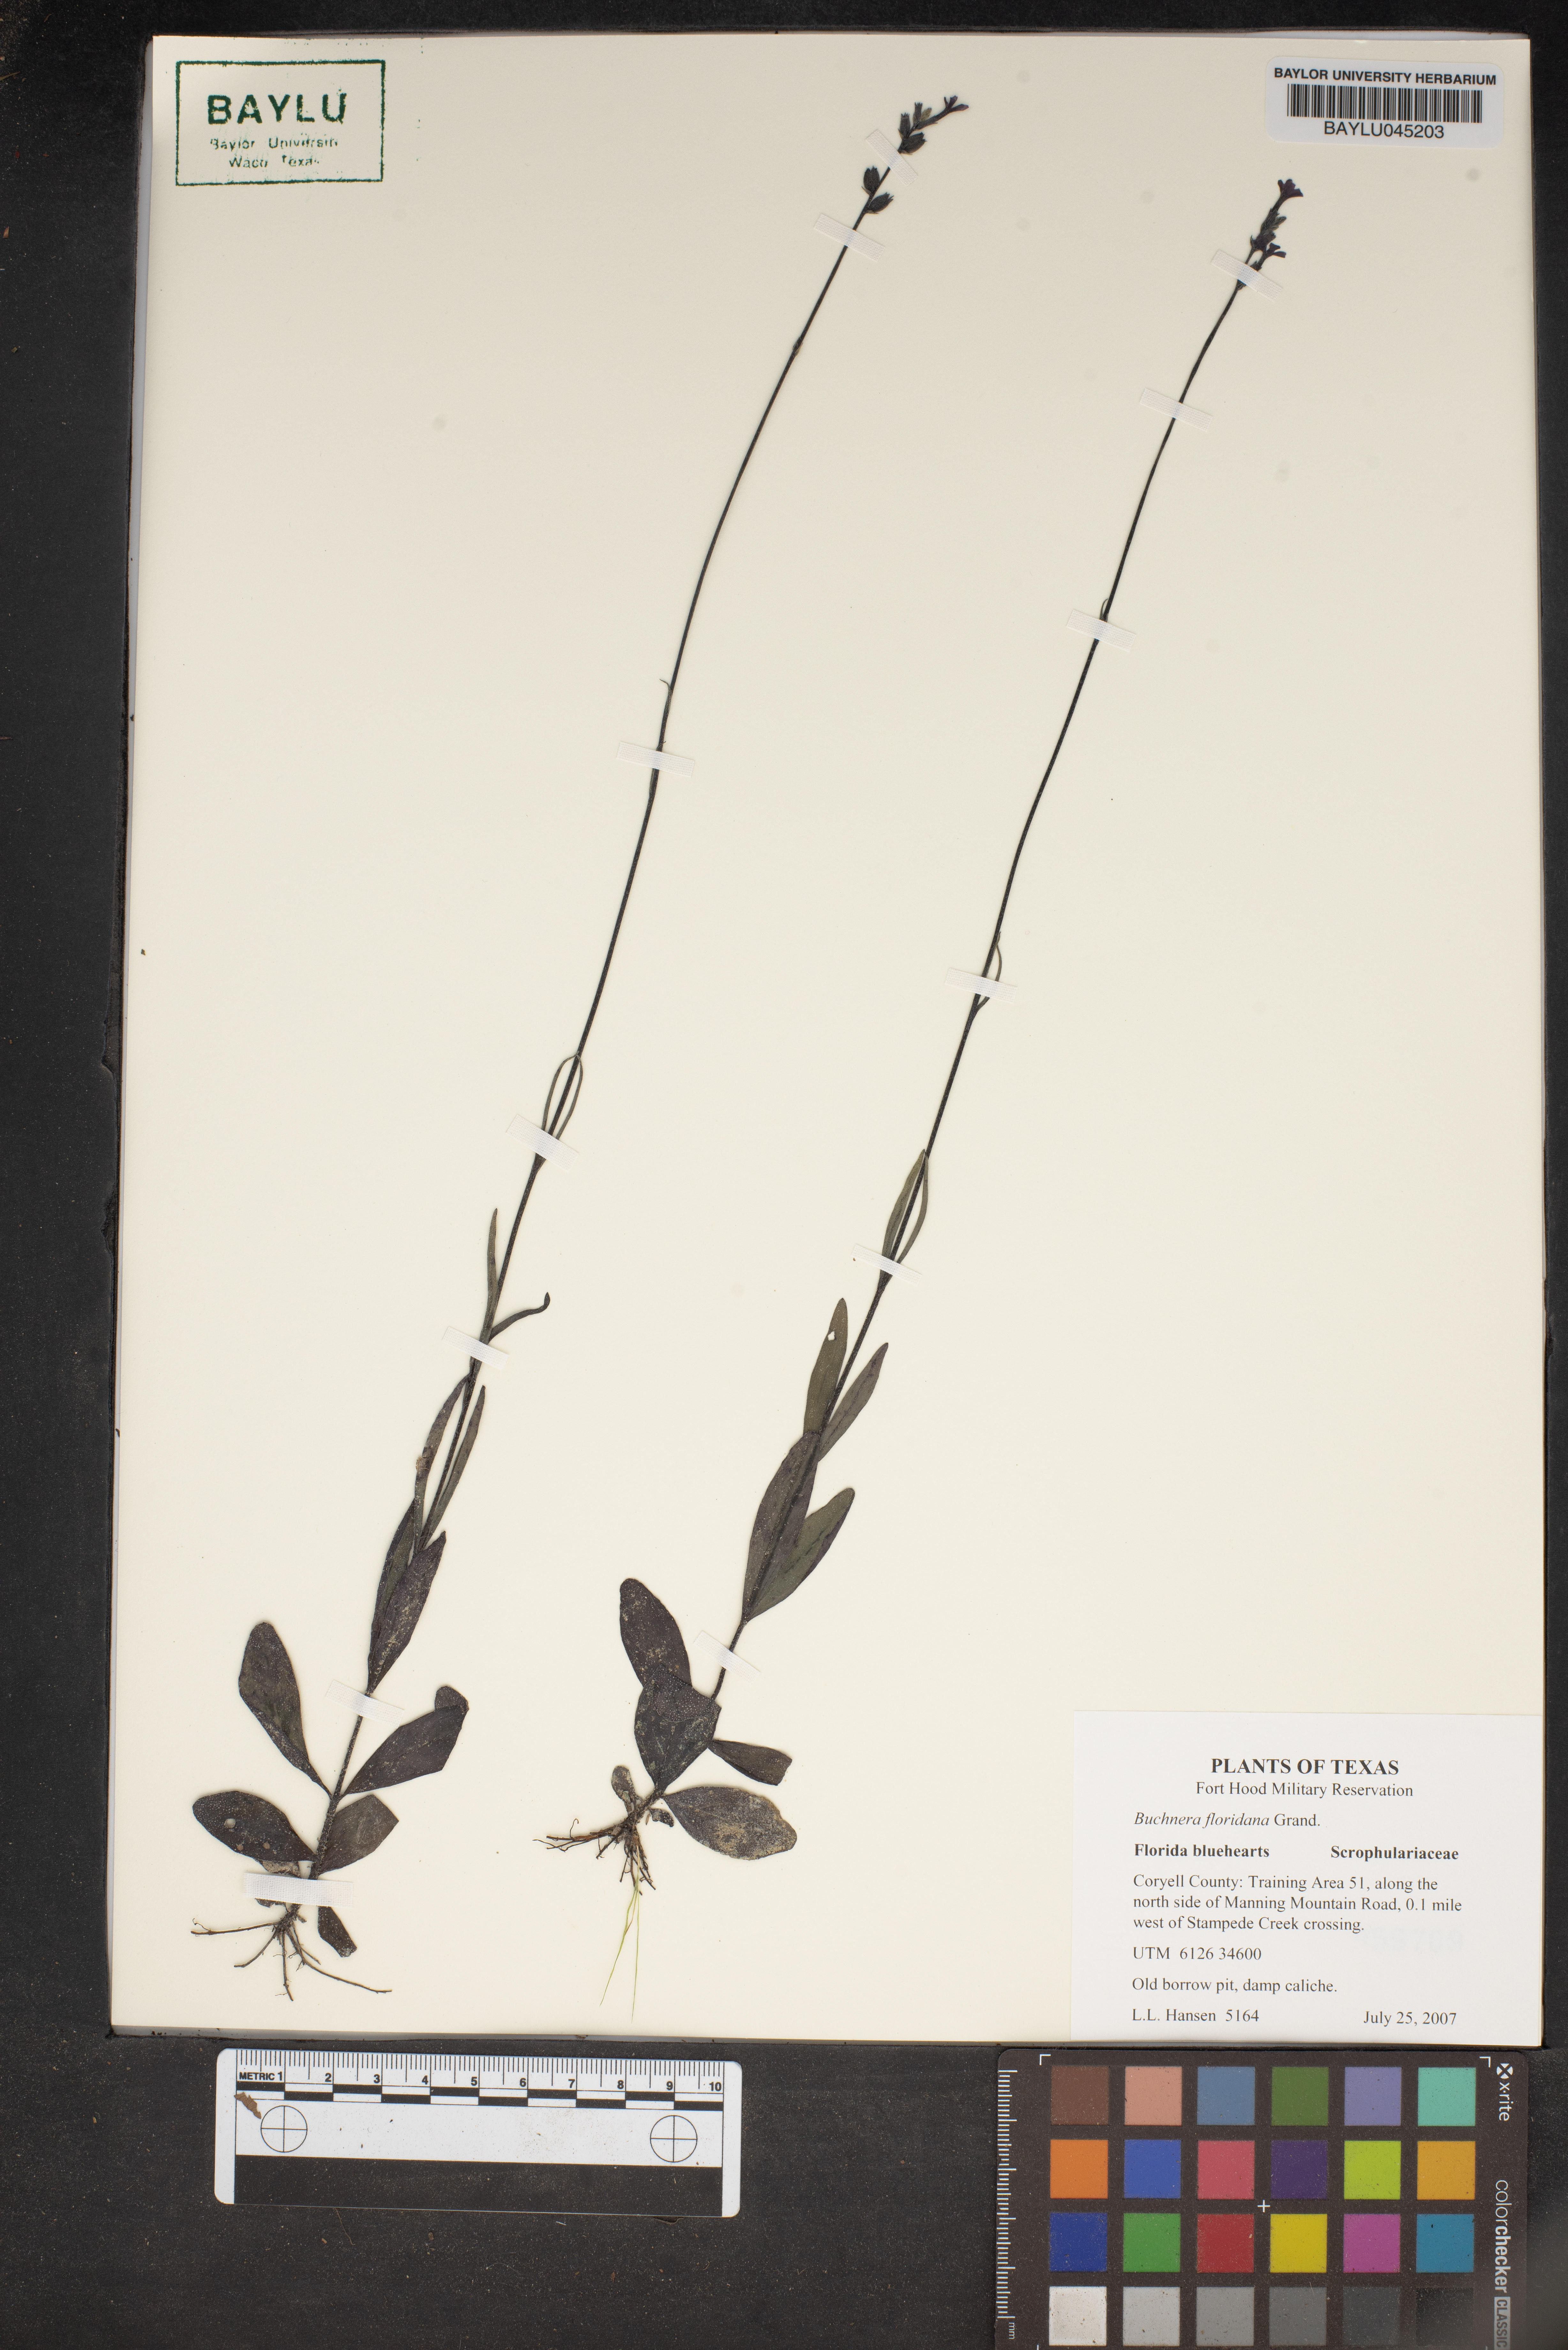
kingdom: Plantae
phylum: Tracheophyta
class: Magnoliopsida
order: Lamiales
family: Orobanchaceae
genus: Buchnera
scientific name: Buchnera floridana
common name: Florida bluehearts
